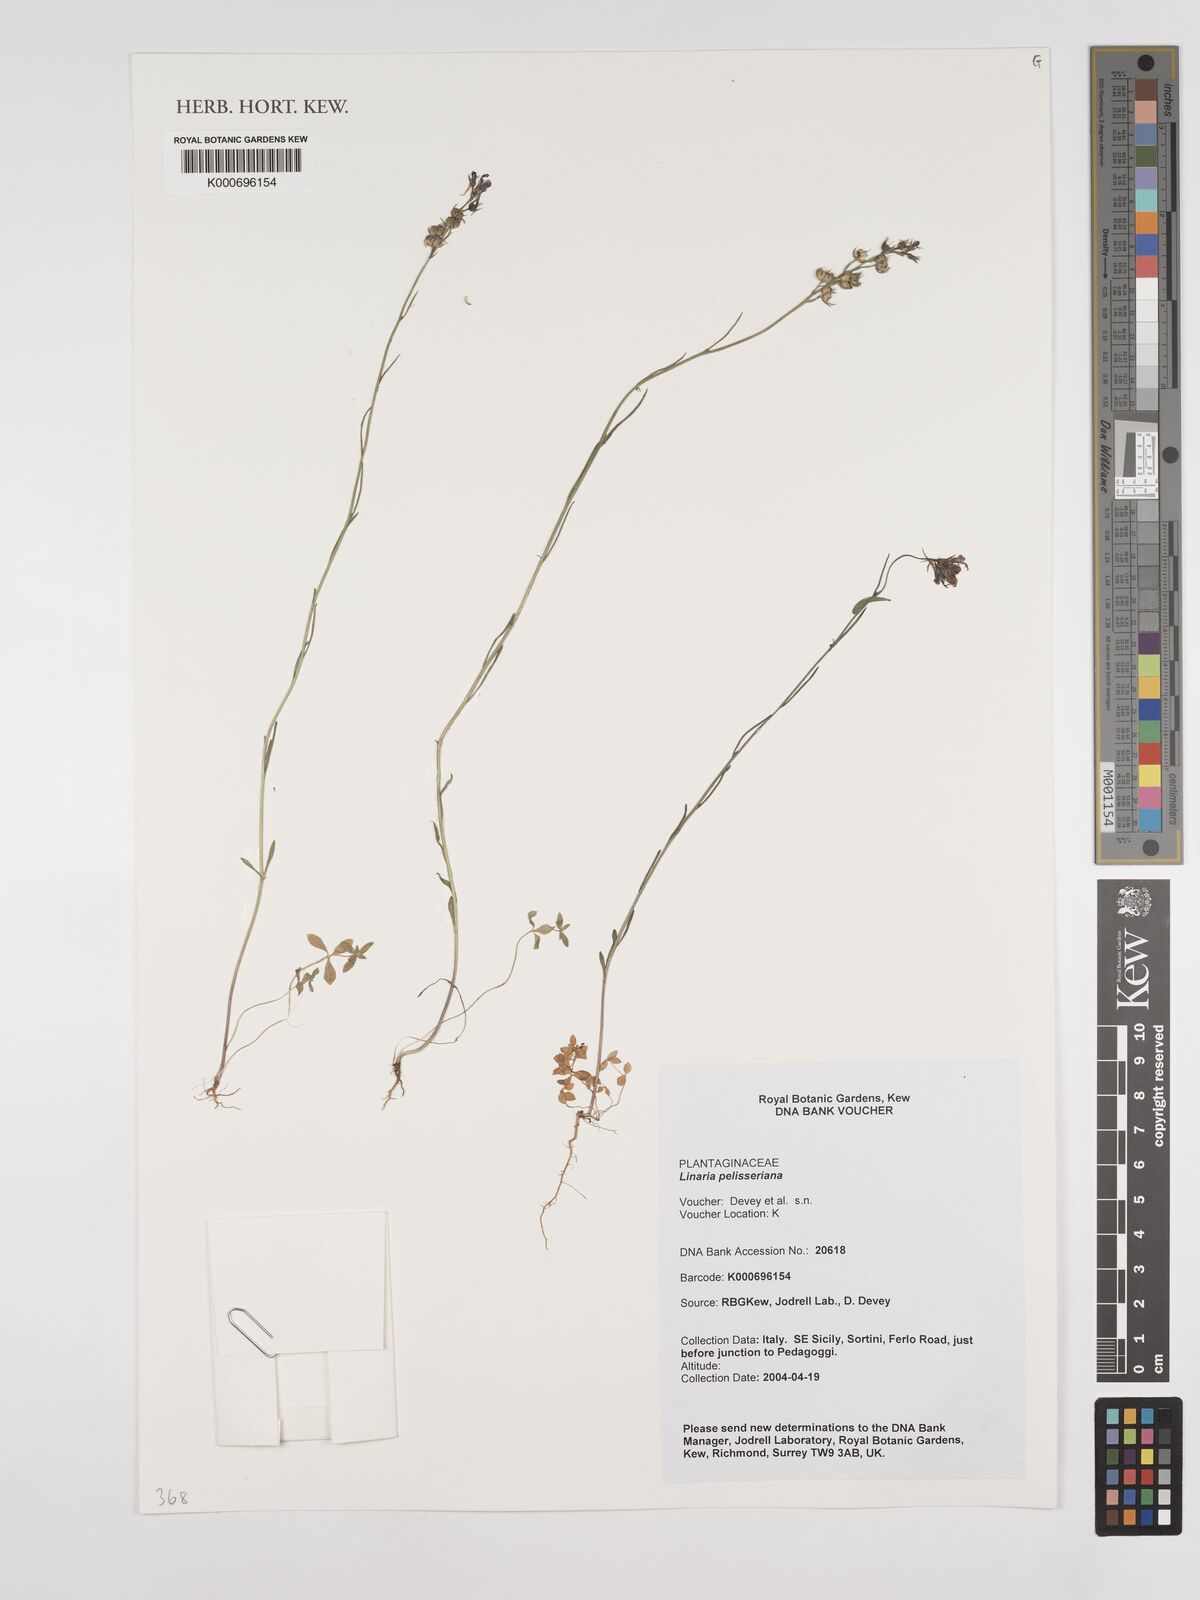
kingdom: Plantae
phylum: Tracheophyta
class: Magnoliopsida
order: Lamiales
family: Plantaginaceae
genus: Linaria
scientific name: Linaria pelisseriana
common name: Jersey toadflax
